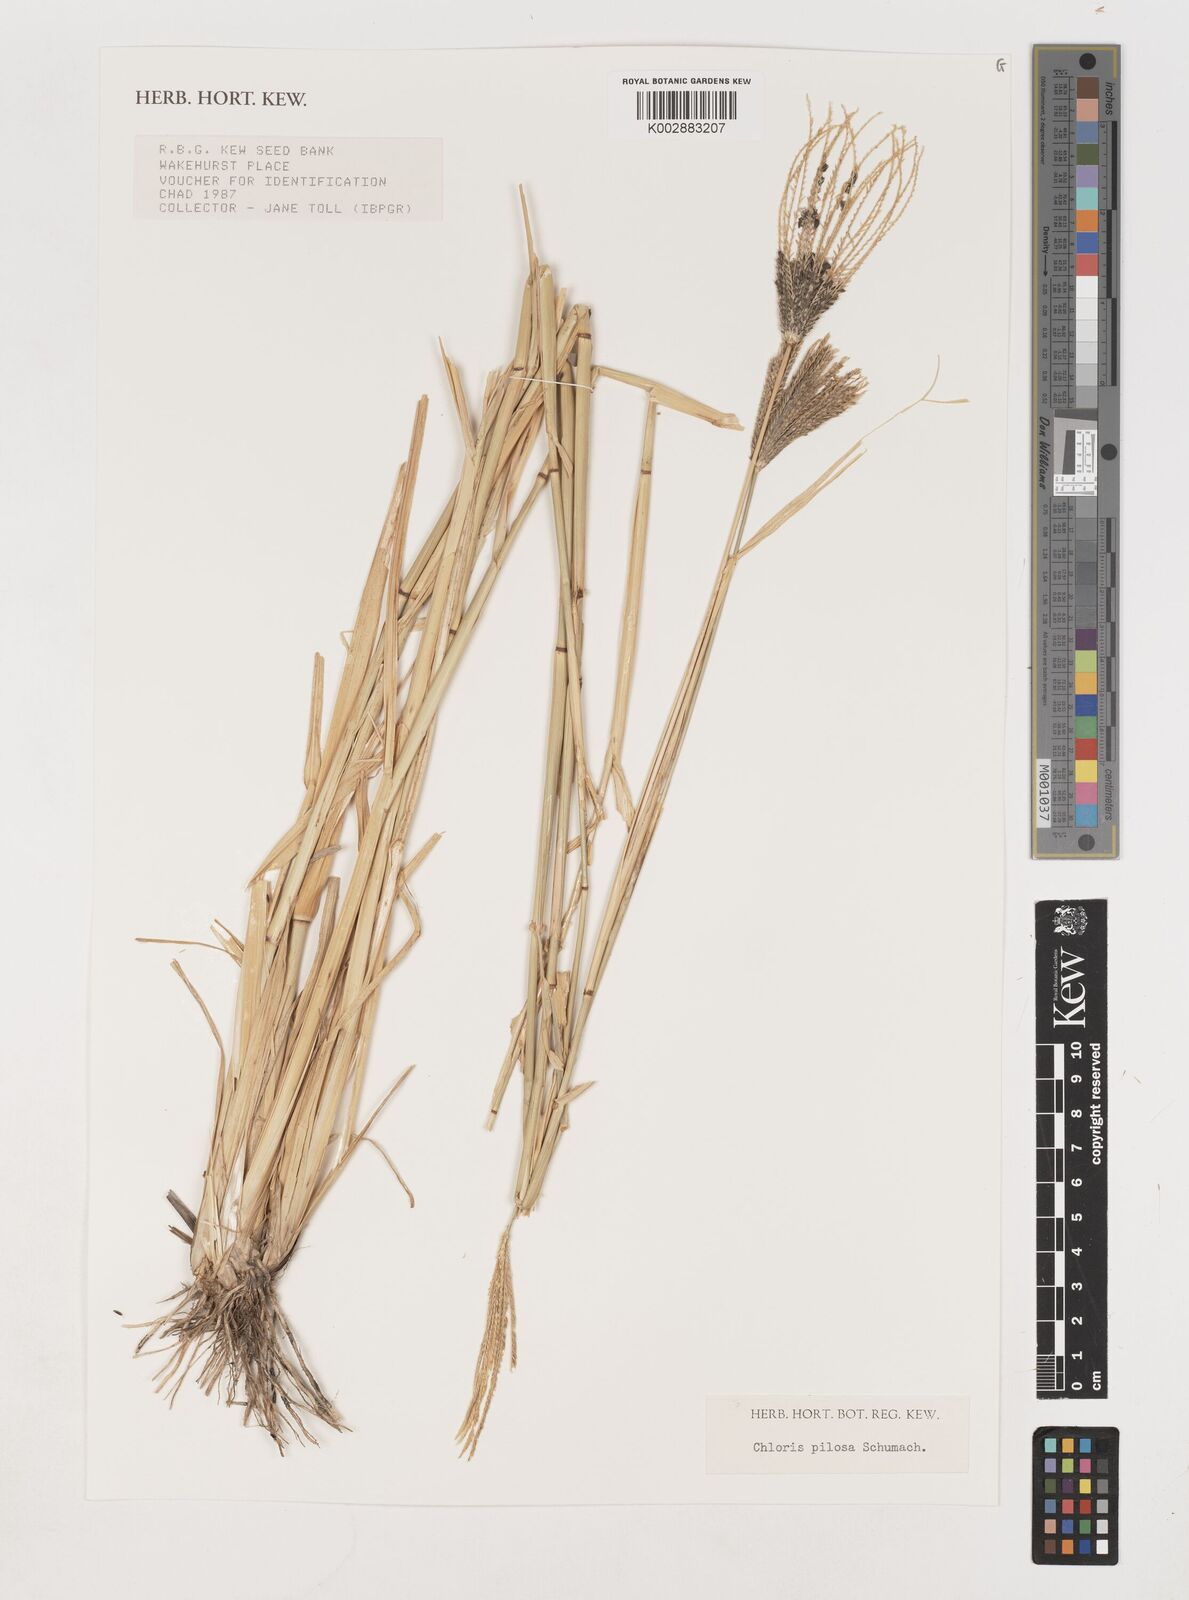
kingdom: Plantae
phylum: Tracheophyta
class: Liliopsida
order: Poales
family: Poaceae
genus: Chloris
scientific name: Chloris pilosa
